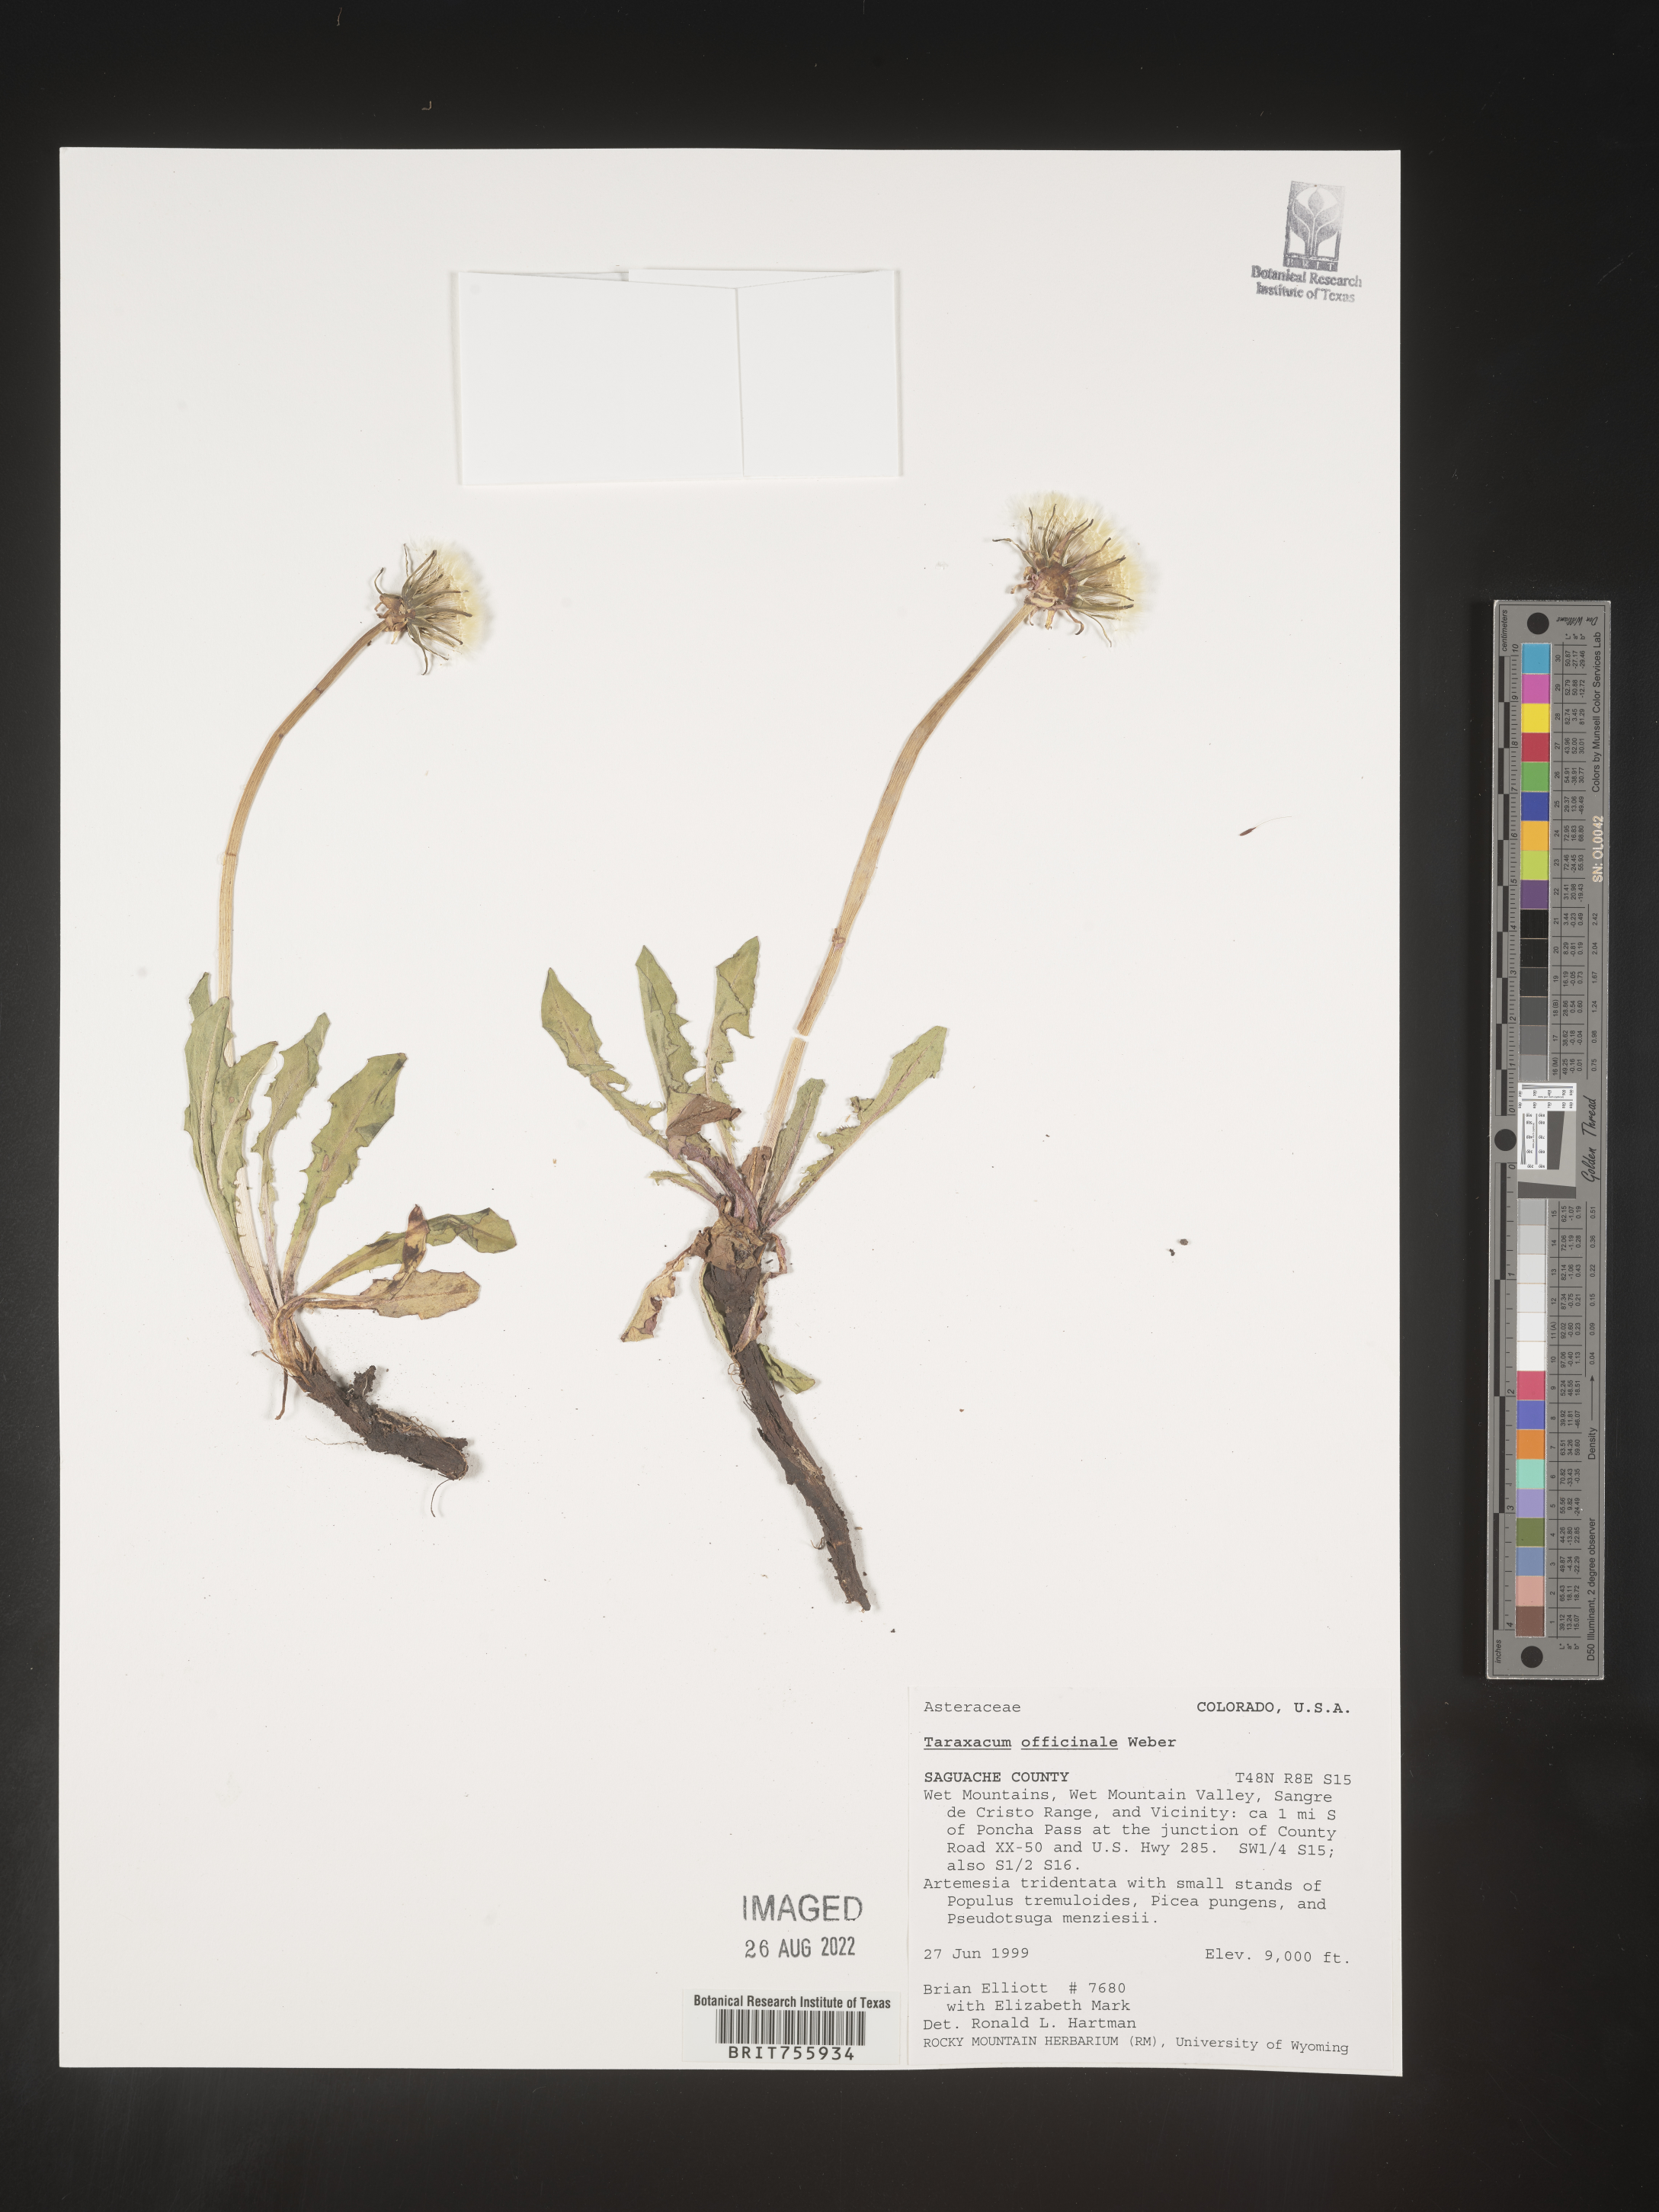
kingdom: Plantae
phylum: Tracheophyta
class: Magnoliopsida
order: Asterales
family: Asteraceae
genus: Taraxacum
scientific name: Taraxacum officinale
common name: Common dandelion
